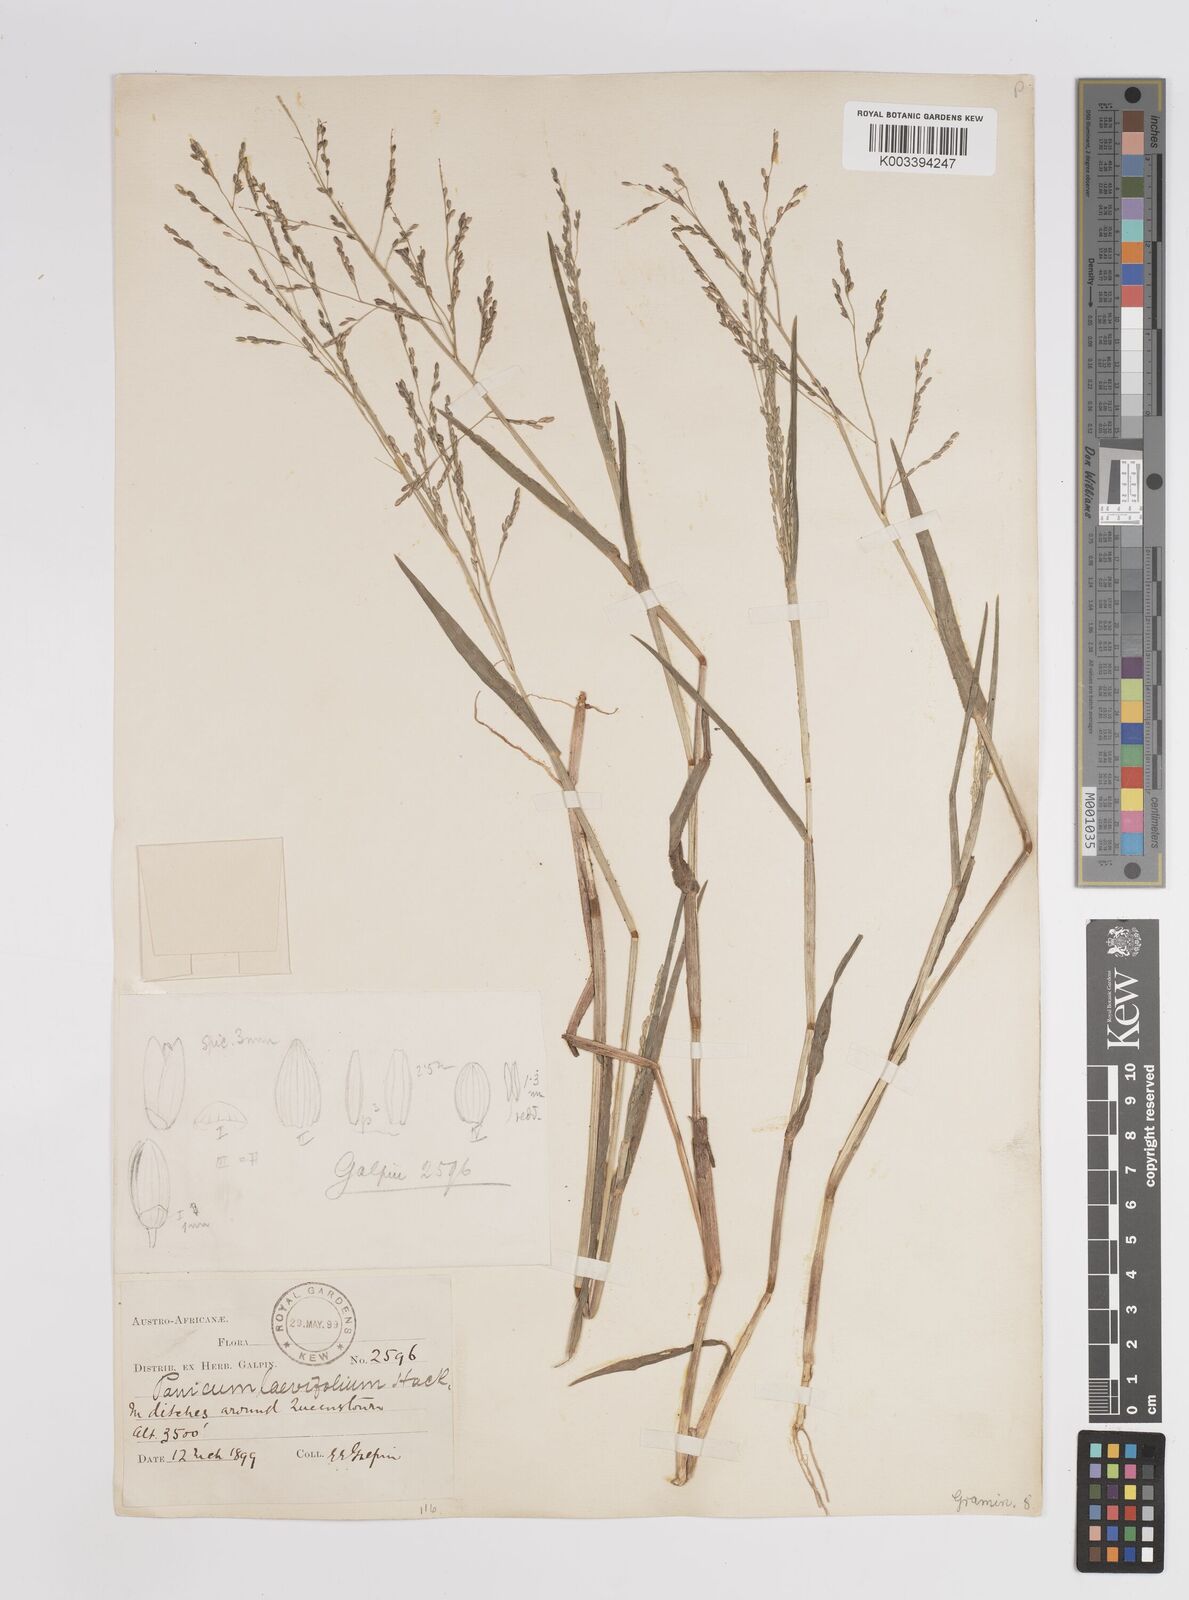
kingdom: Plantae
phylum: Tracheophyta
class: Liliopsida
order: Poales
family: Poaceae
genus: Panicum
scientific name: Panicum schinzii
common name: Sweet grass
